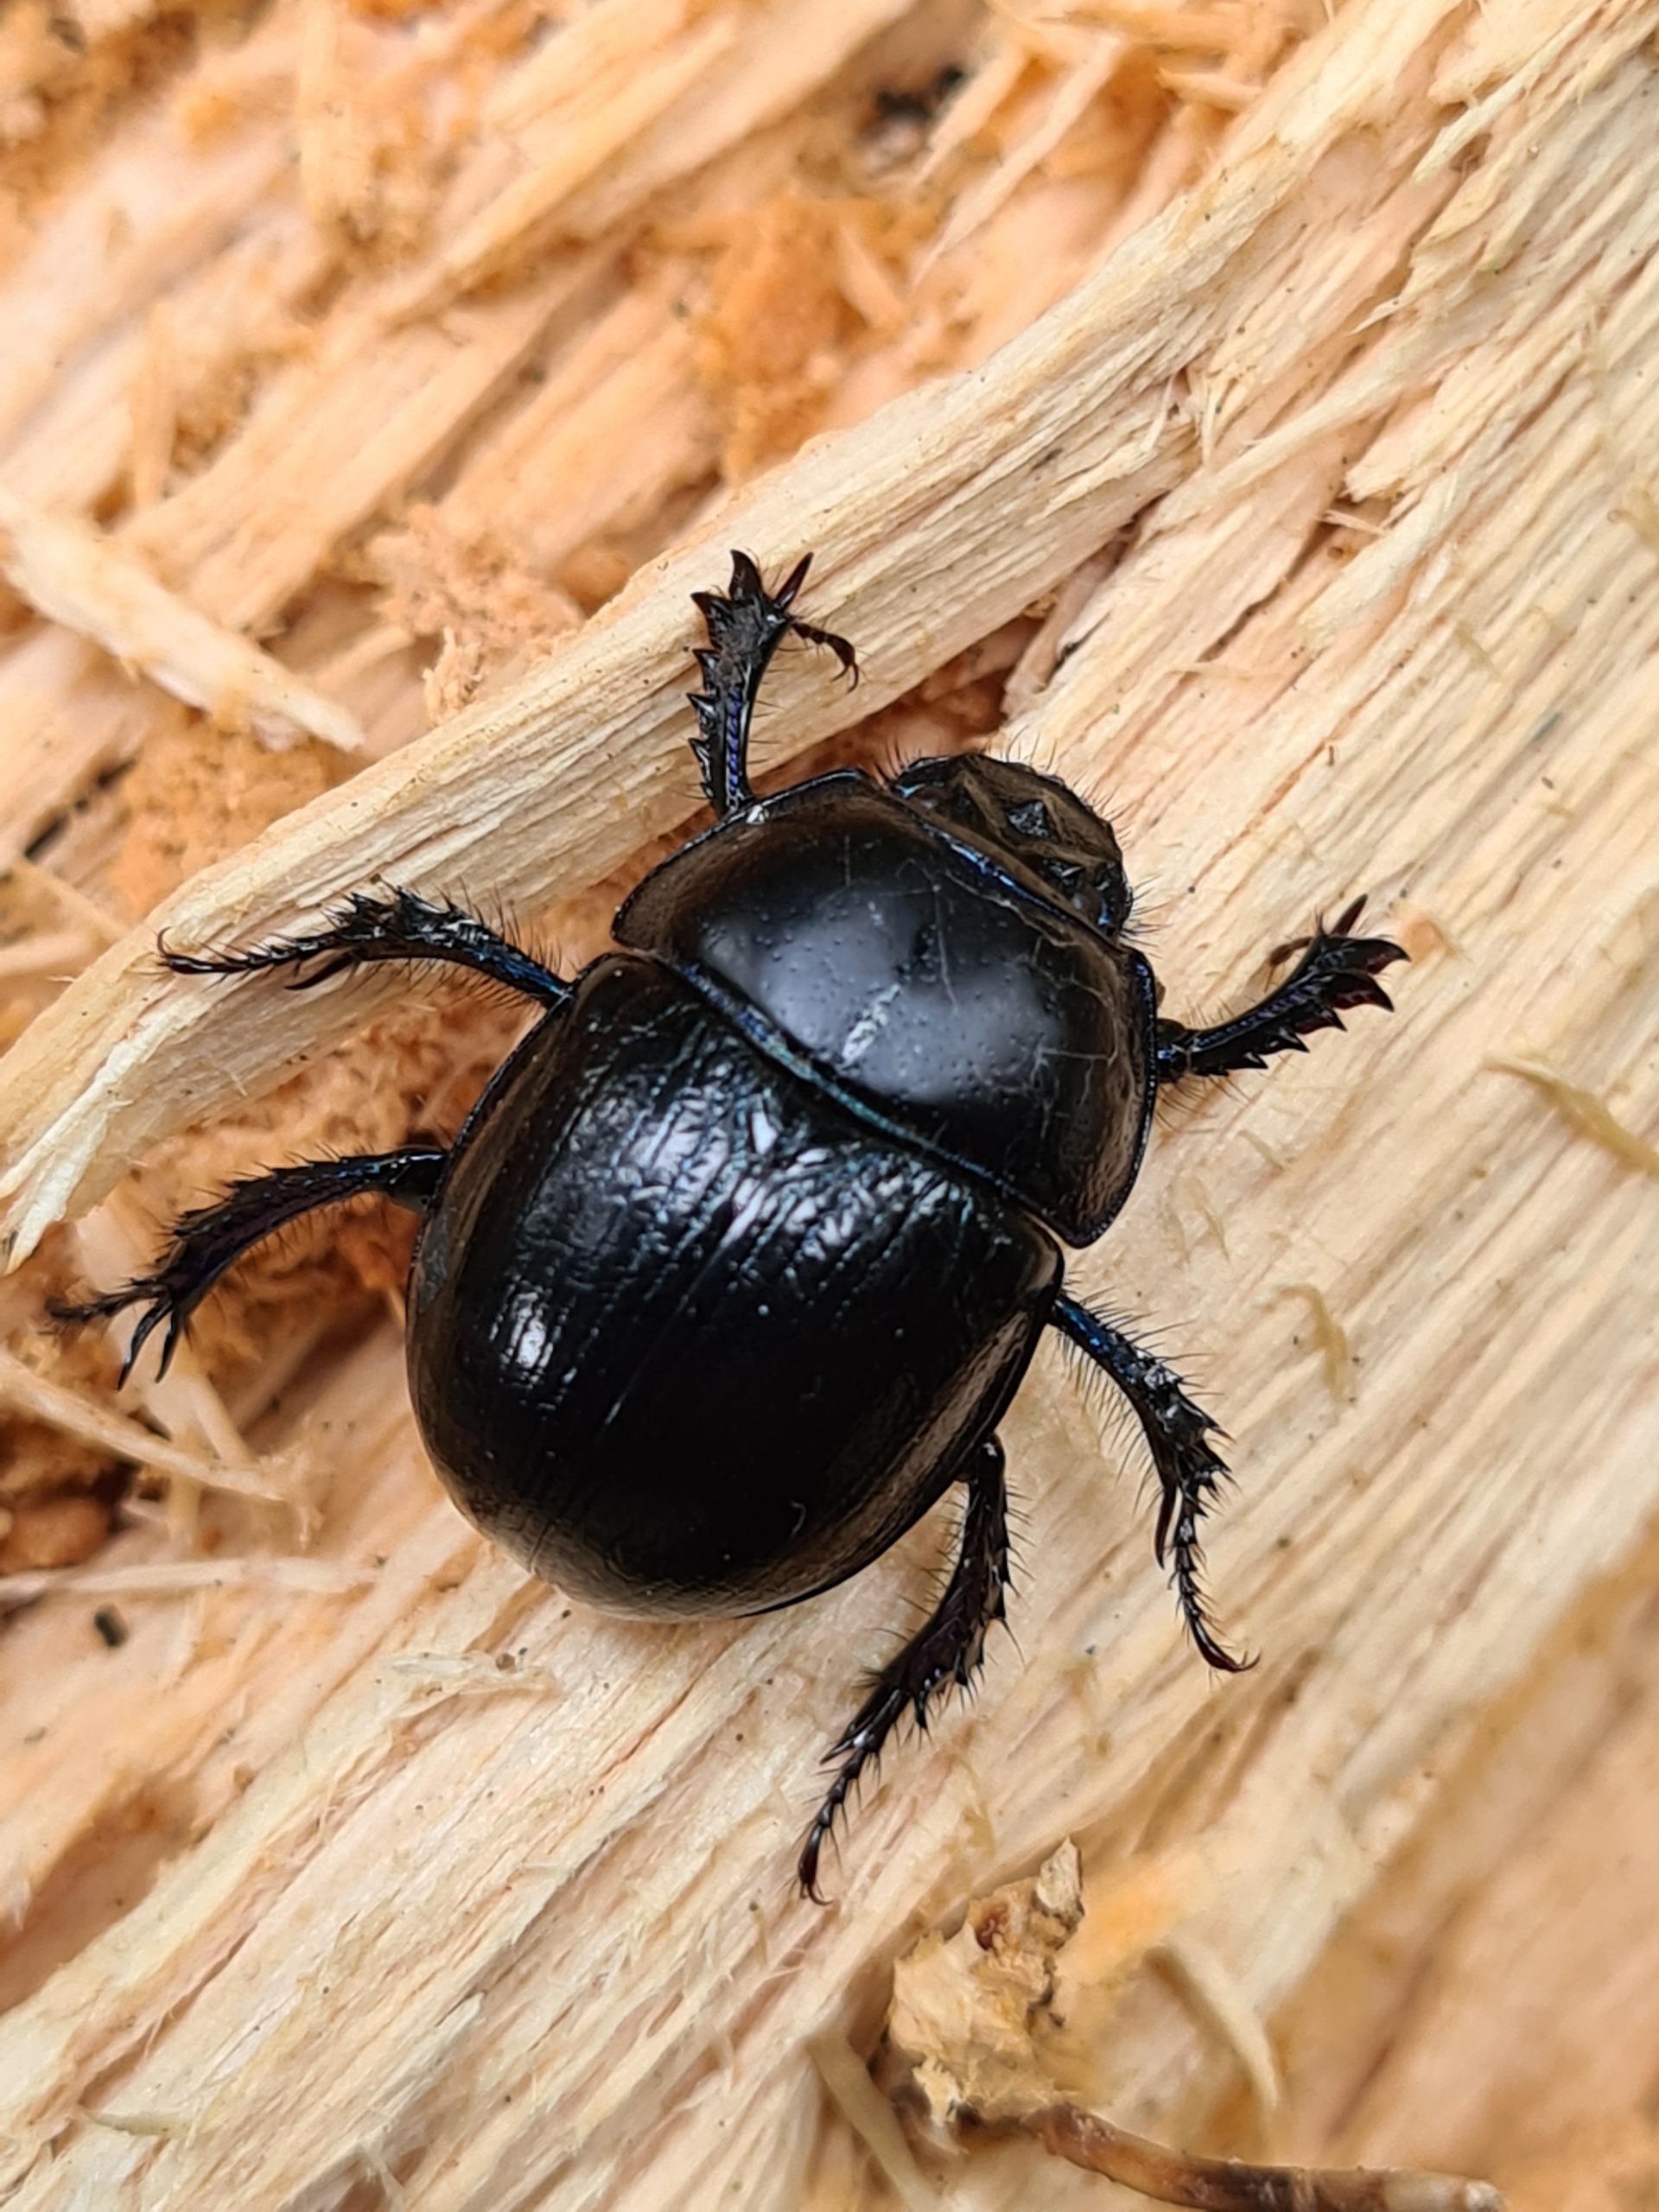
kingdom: Animalia
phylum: Arthropoda
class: Insecta
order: Coleoptera
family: Geotrupidae
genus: Anoplotrupes
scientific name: Anoplotrupes stercorosus
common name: Skovskarnbasse
